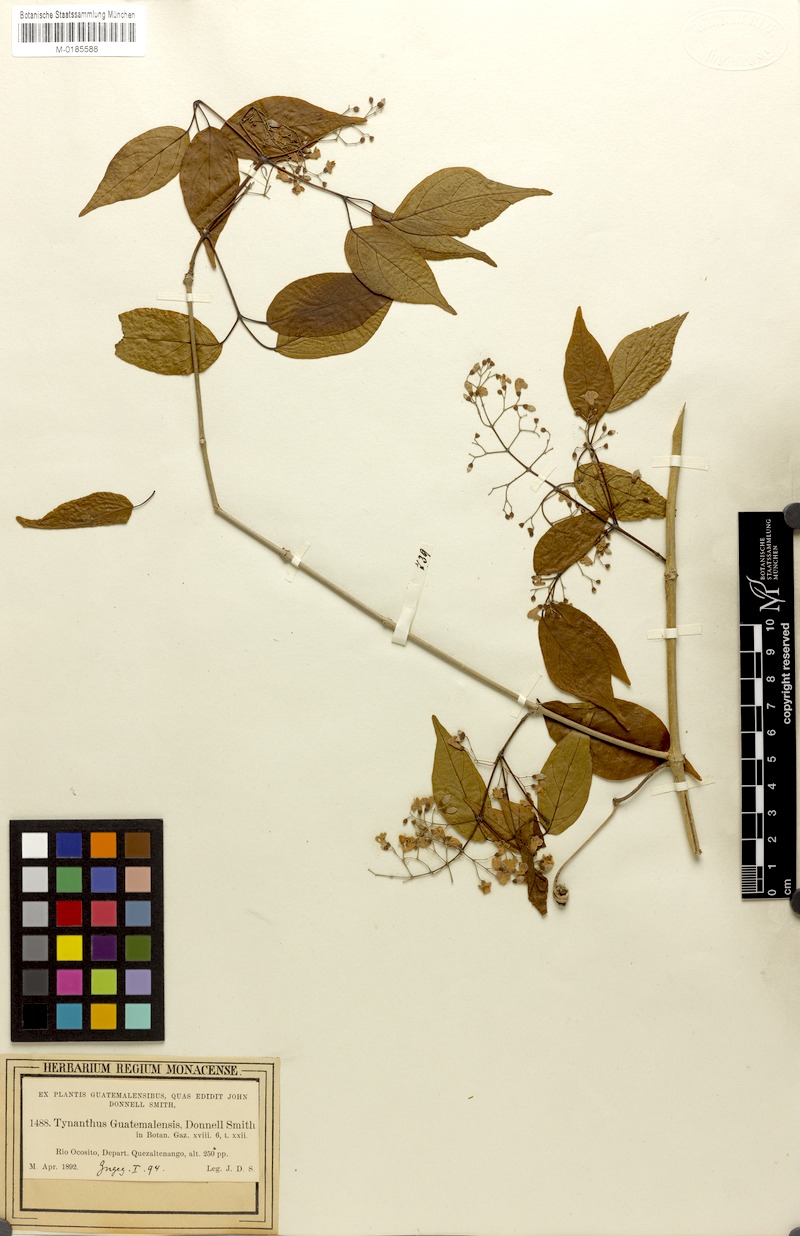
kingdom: Plantae
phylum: Tracheophyta
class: Magnoliopsida
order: Lamiales
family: Bignoniaceae
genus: Tynanthus
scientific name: Tynanthus guatemalensis
